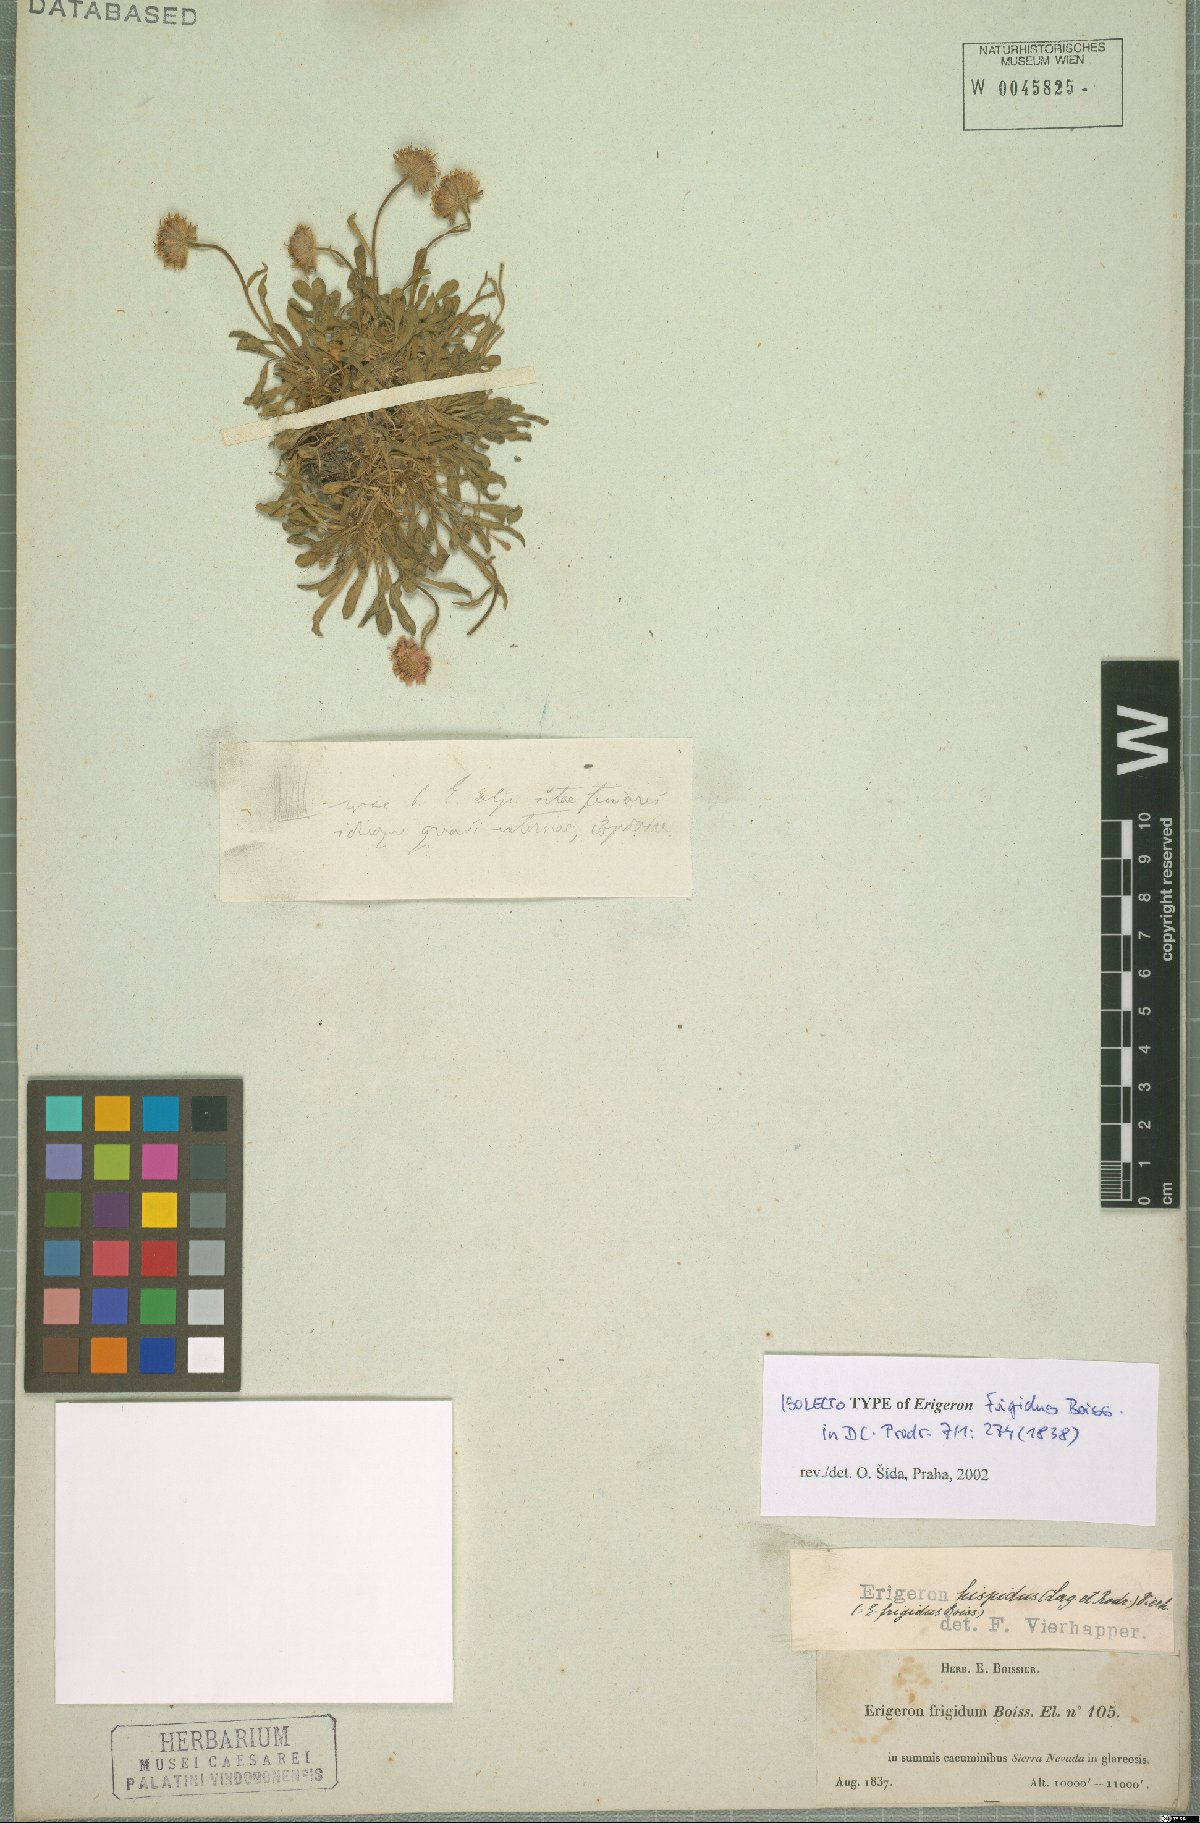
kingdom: Plantae
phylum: Tracheophyta
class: Magnoliopsida
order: Asterales
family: Asteraceae
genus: Erigeron
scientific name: Erigeron frigidus
